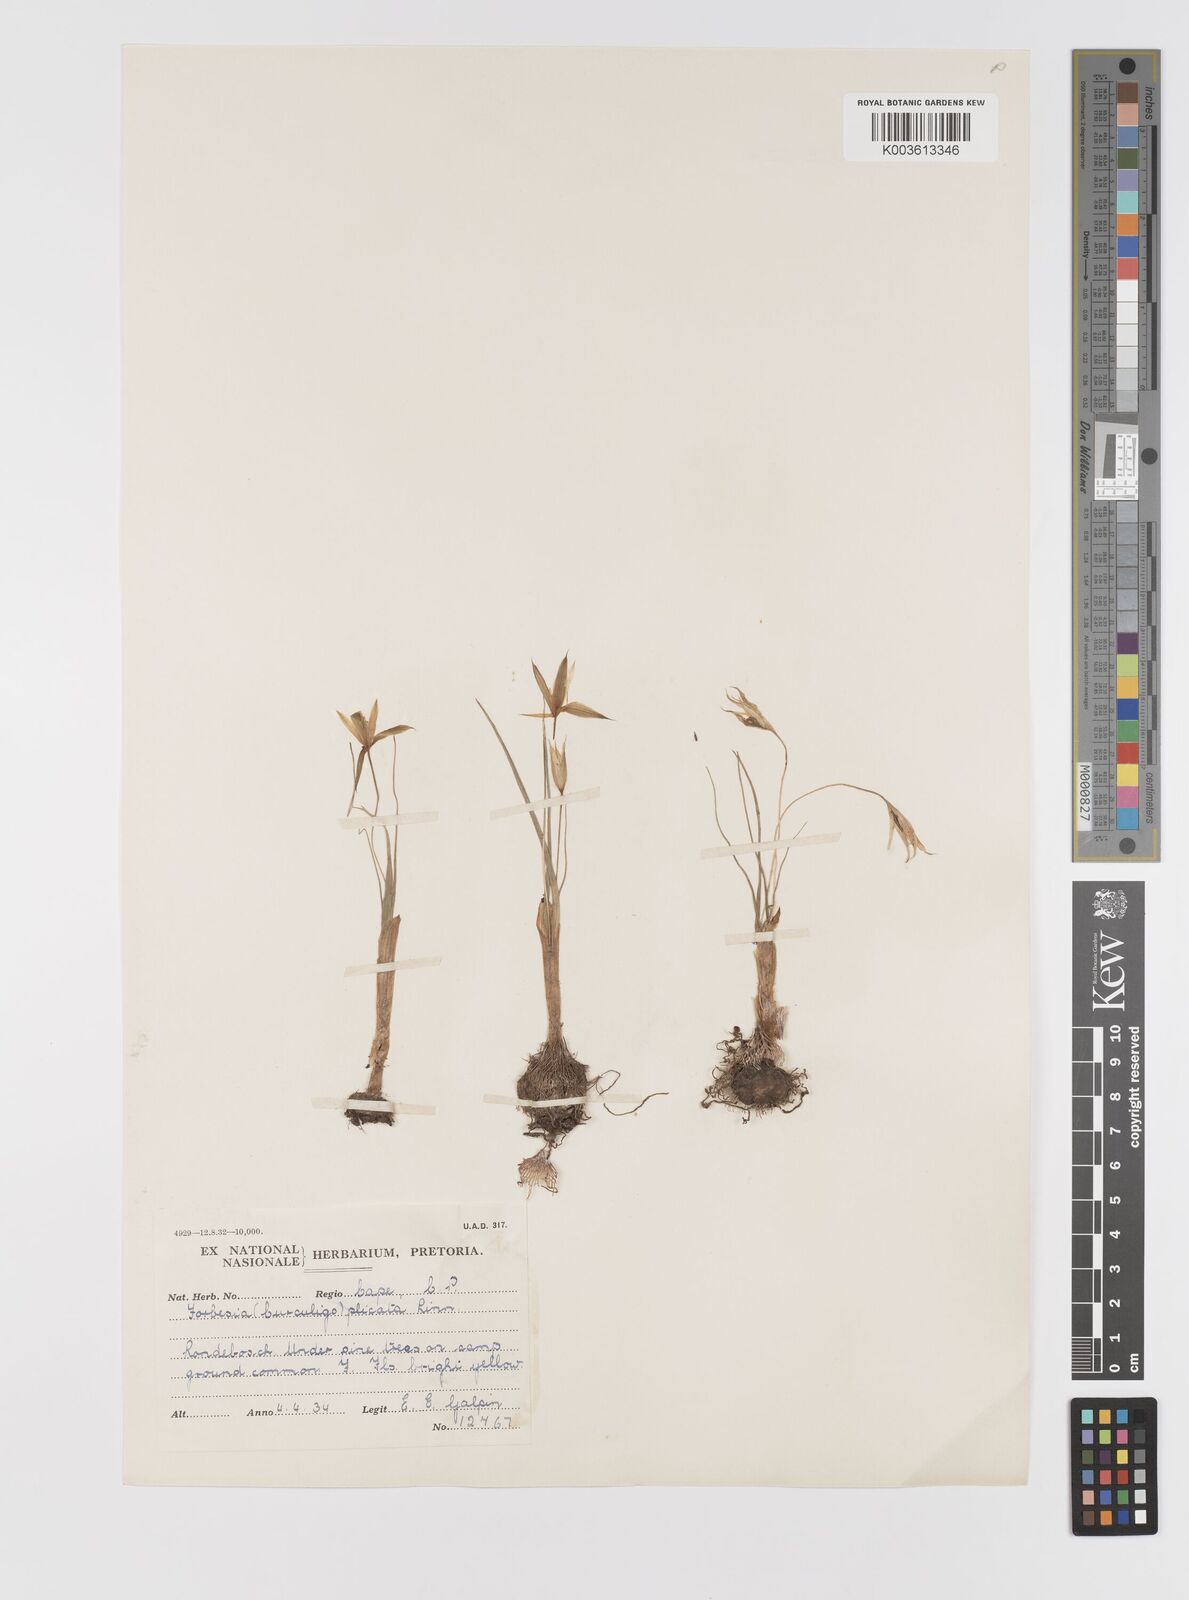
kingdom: Plantae
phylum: Tracheophyta
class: Liliopsida
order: Asparagales
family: Hypoxidaceae
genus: Empodium
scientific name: Empodium plicatum
